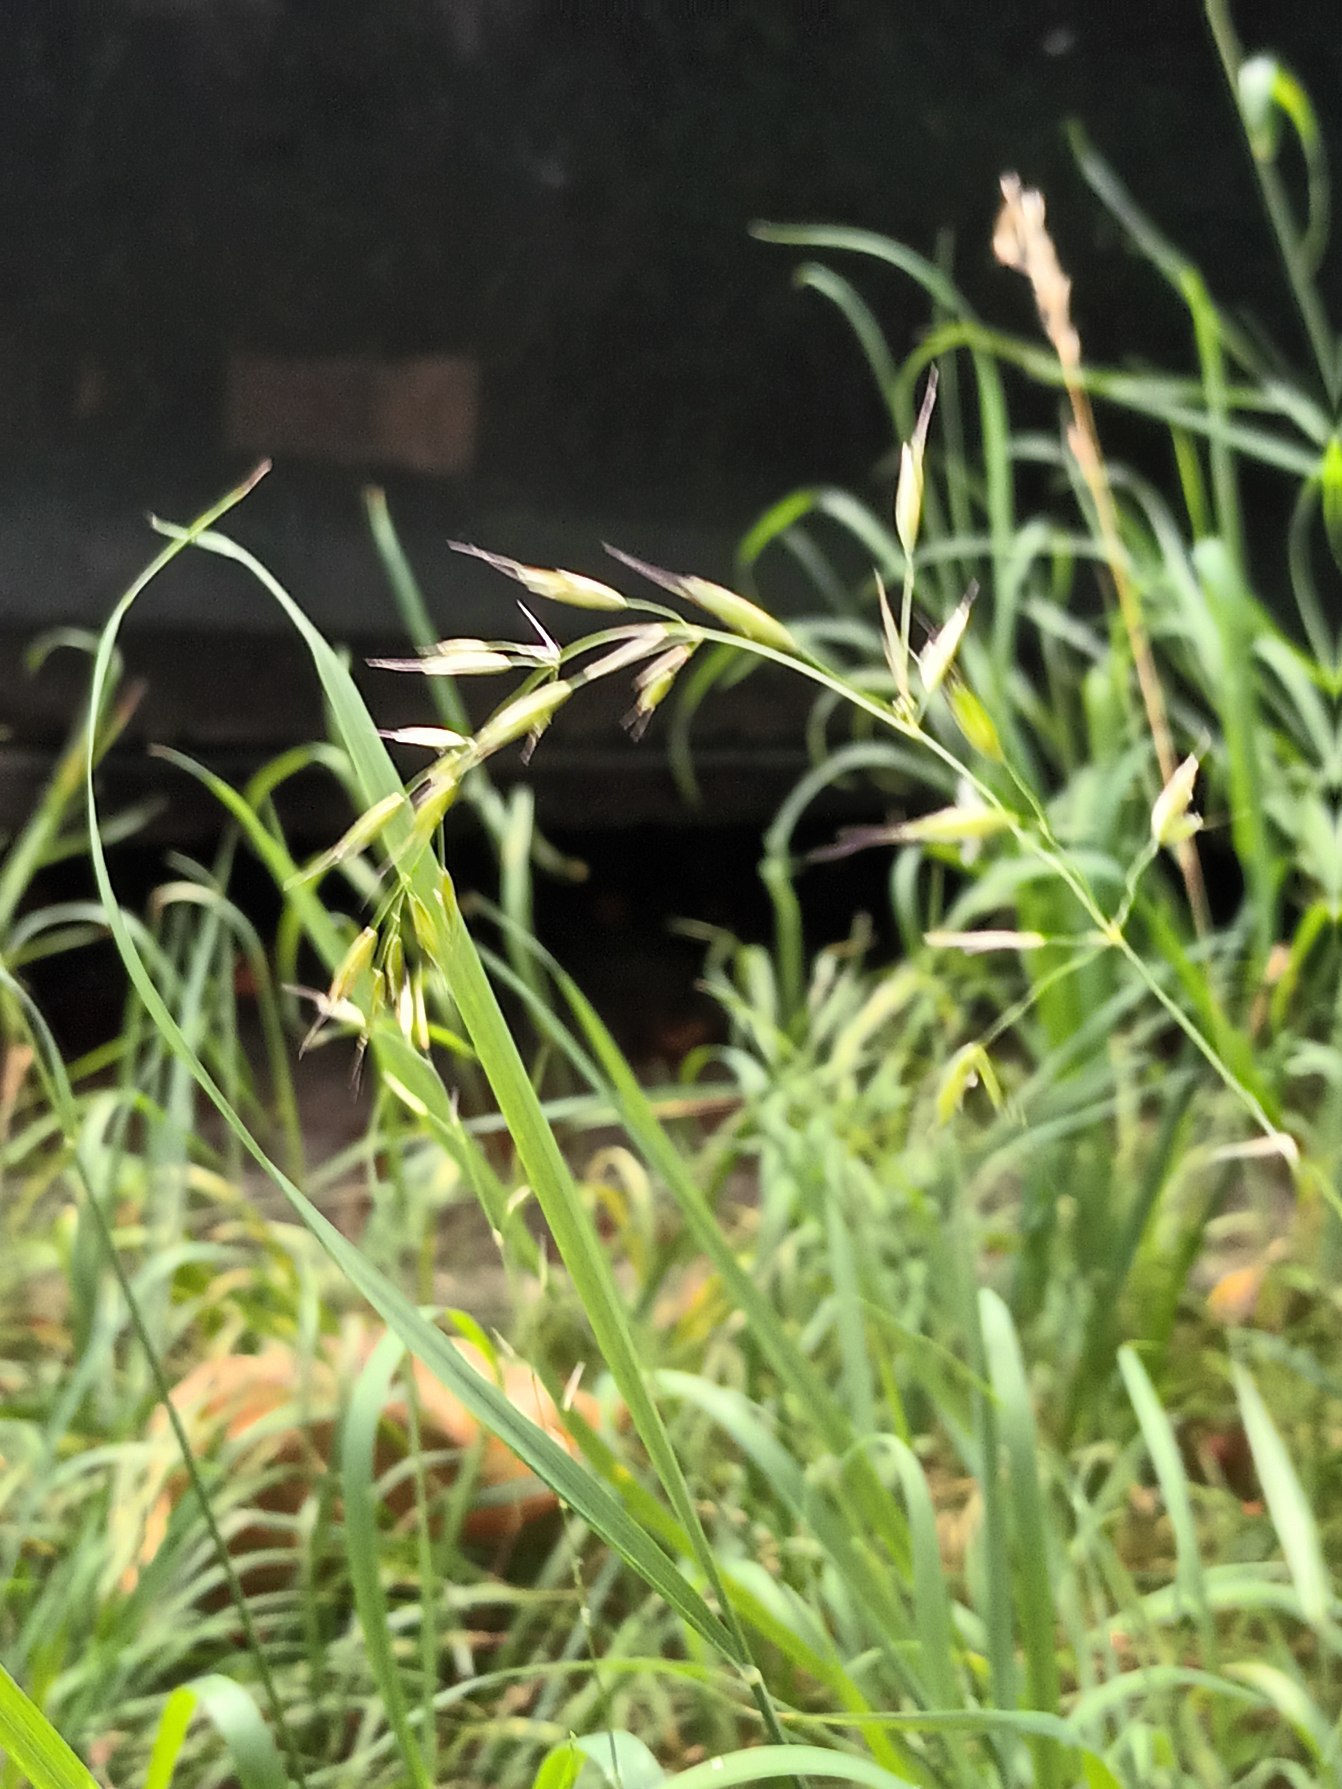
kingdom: Plantae
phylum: Tracheophyta
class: Liliopsida
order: Poales
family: Poaceae
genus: Arrhenatherum
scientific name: Arrhenatherum elatius
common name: Draphavre
